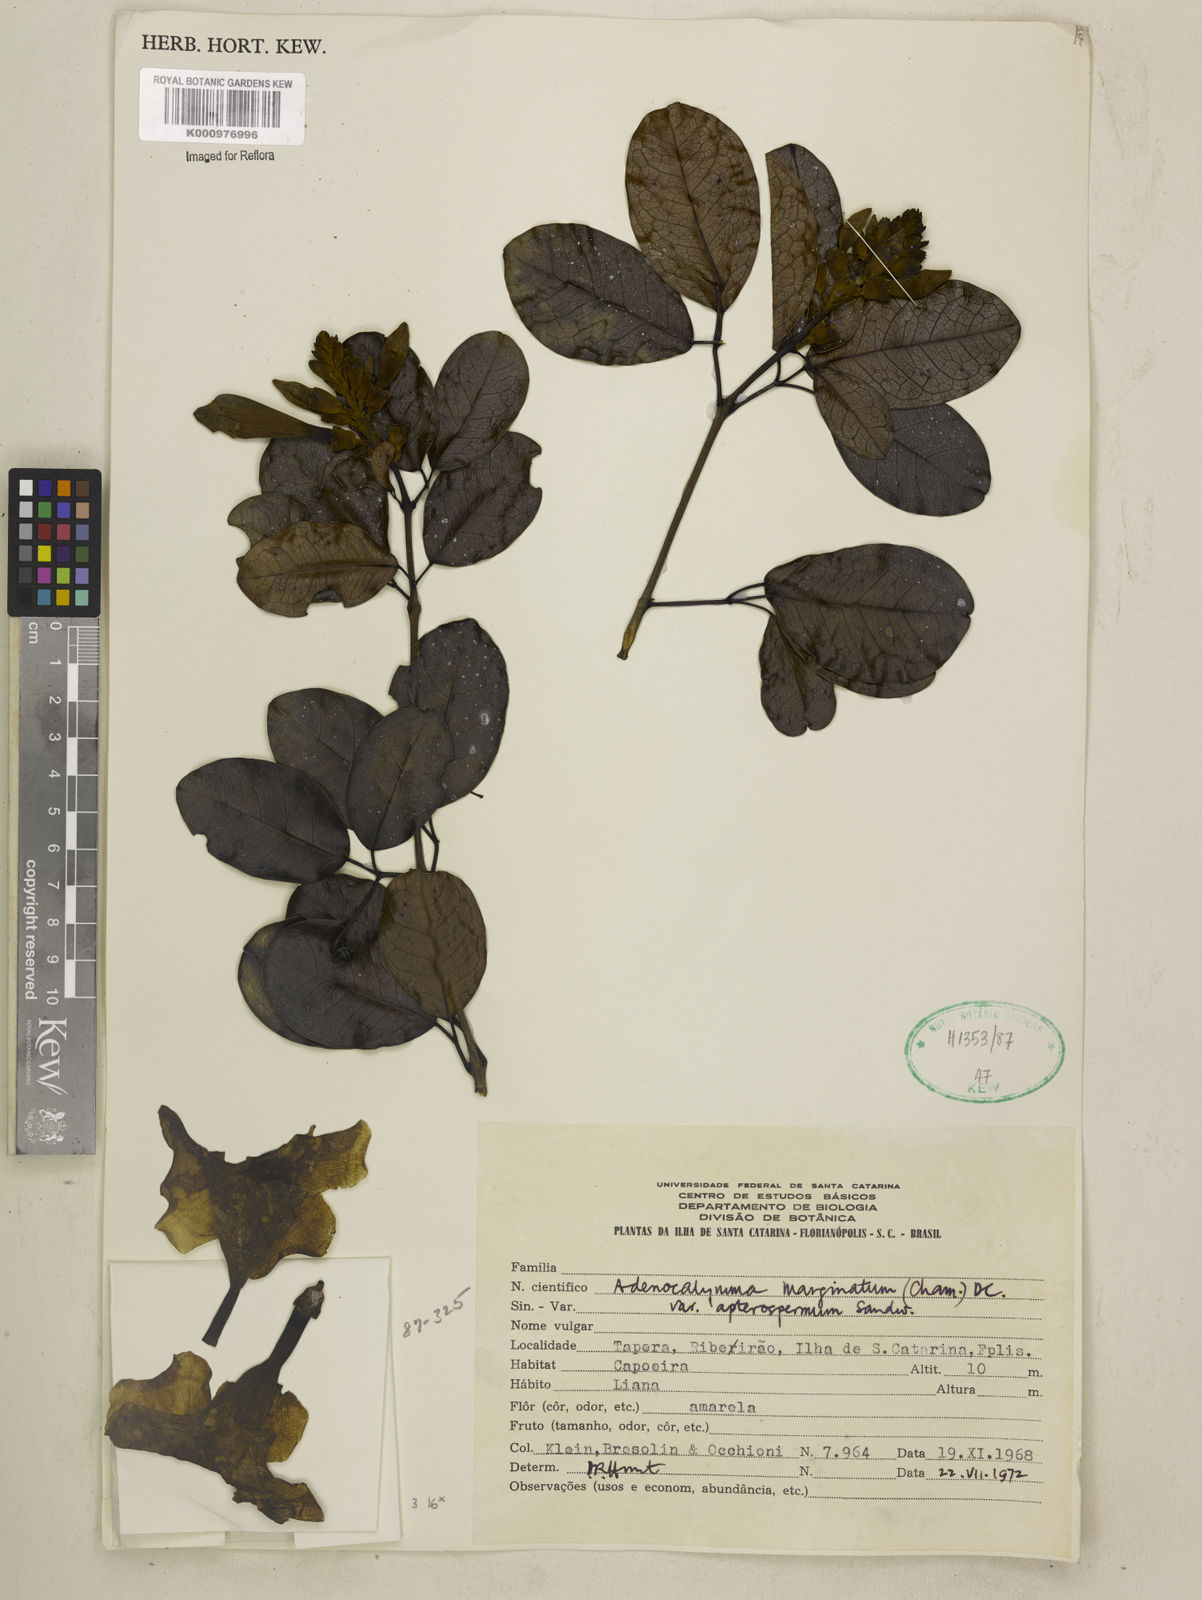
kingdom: Plantae
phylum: Tracheophyta
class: Magnoliopsida
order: Lamiales
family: Bignoniaceae
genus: Adenocalymma
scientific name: Adenocalymma apterospermum
